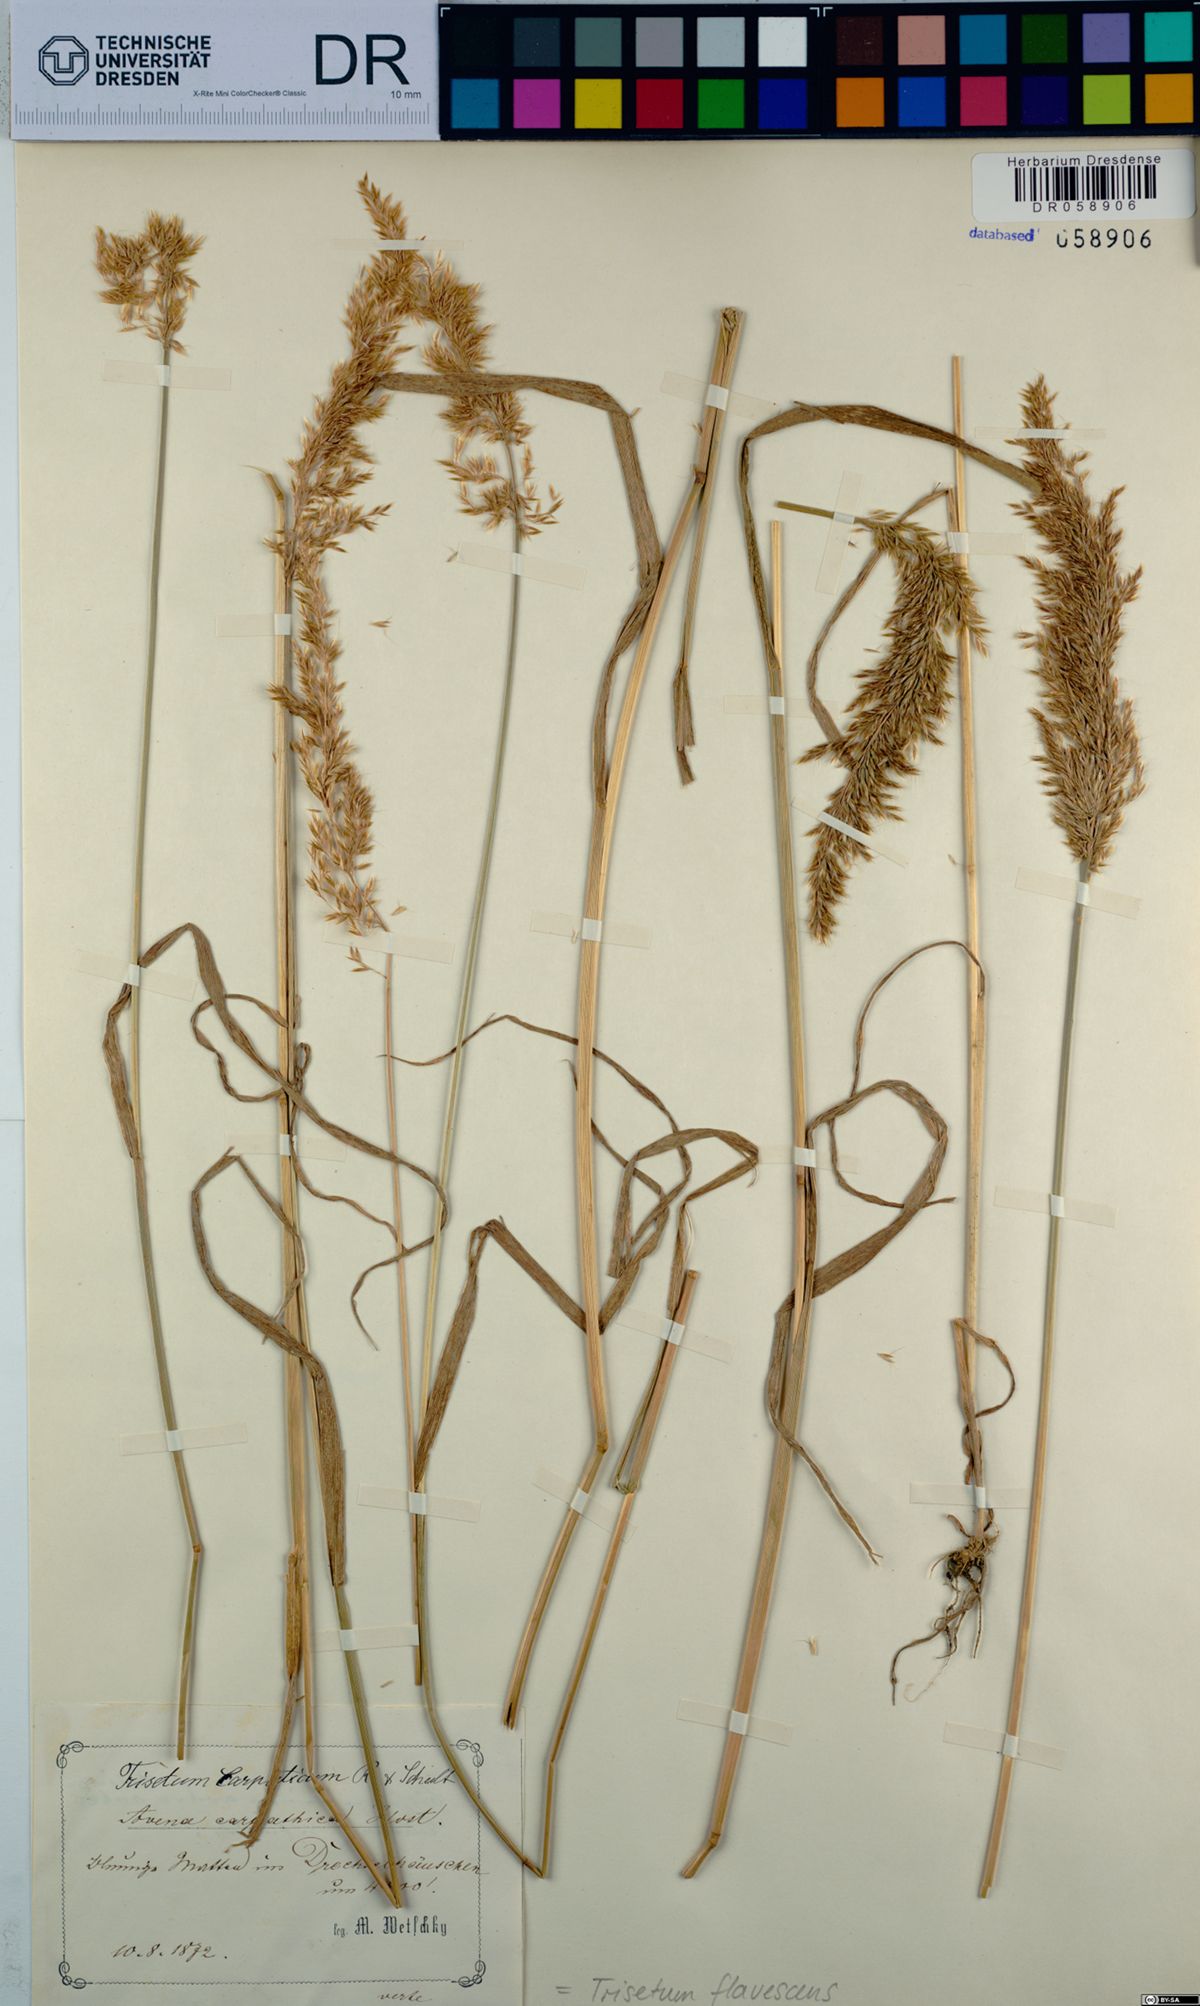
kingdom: Plantae
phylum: Tracheophyta
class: Liliopsida
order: Poales
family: Poaceae
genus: Trisetum
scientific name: Trisetum flavescens
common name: Yellow oat-grass
